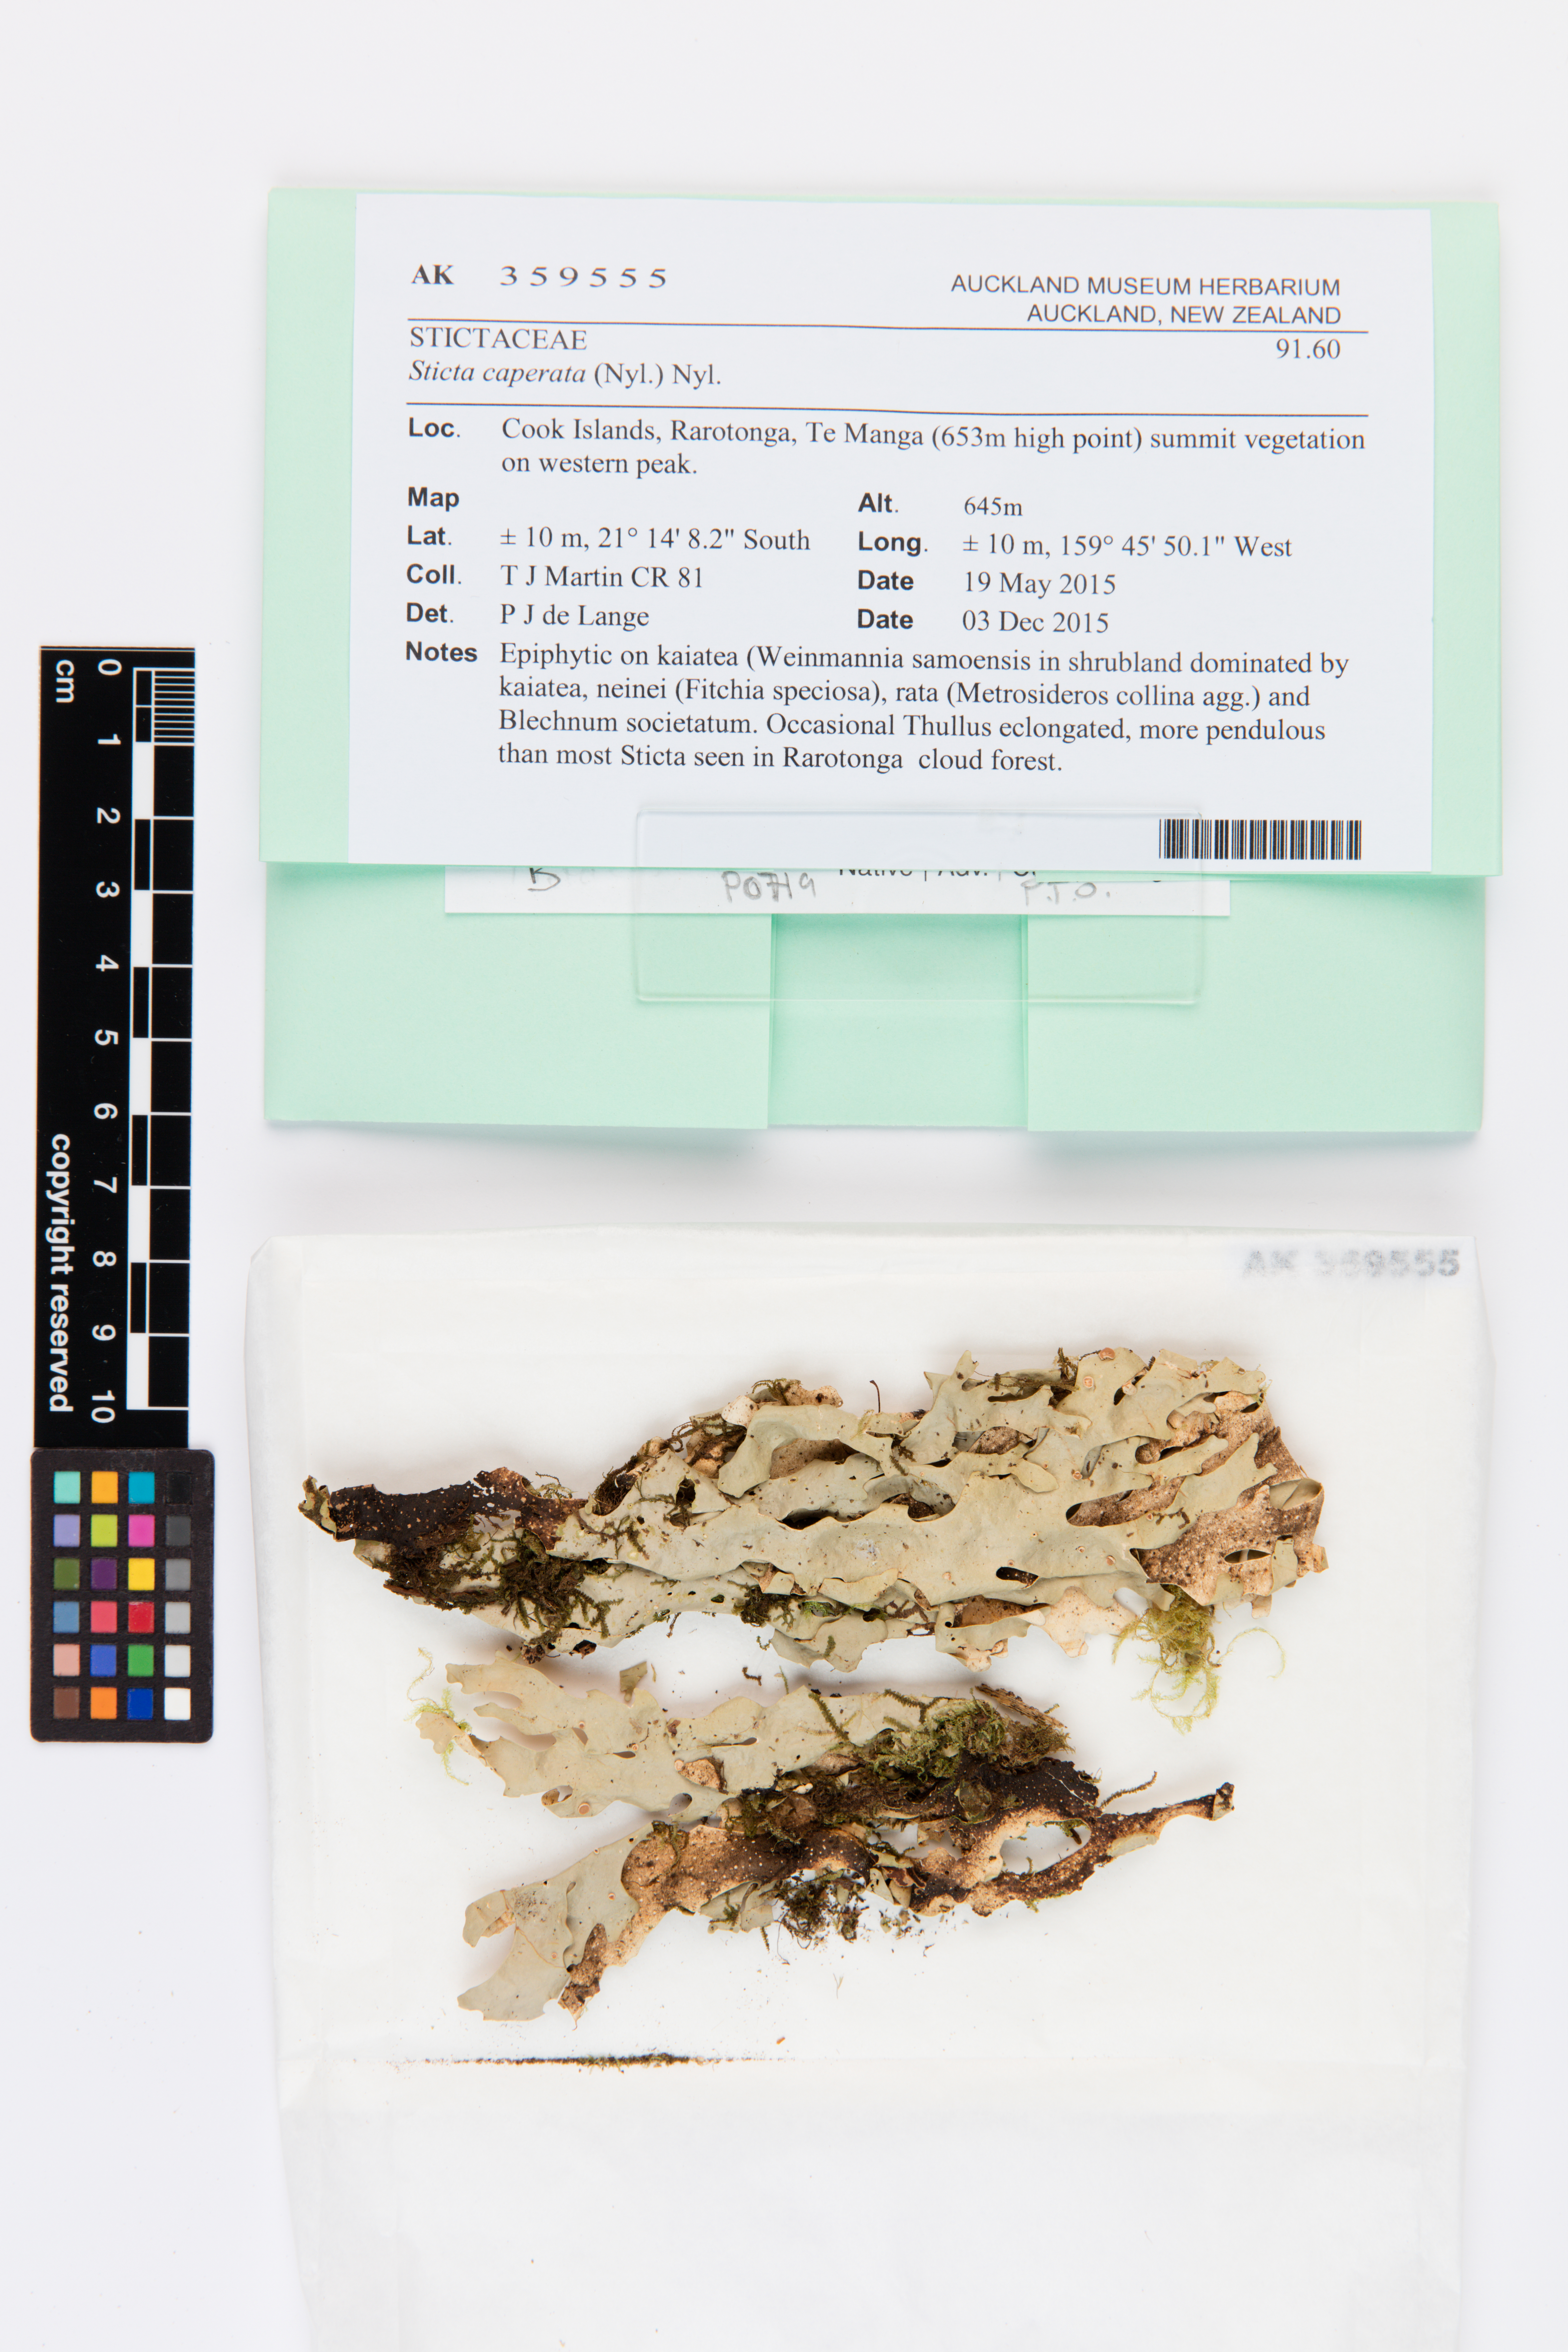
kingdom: Fungi
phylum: Ascomycota
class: Lecanoromycetes
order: Peltigerales
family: Lobariaceae
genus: Sticta
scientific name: Sticta caperata
